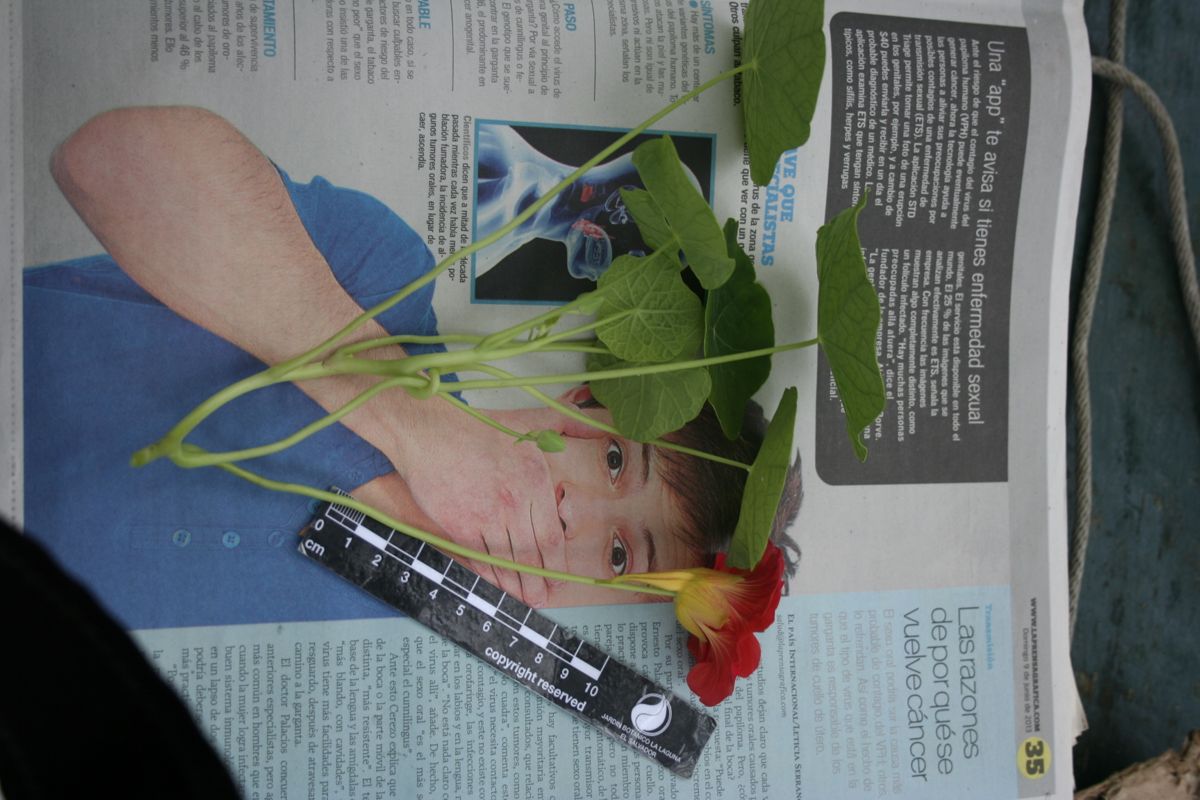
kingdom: Plantae
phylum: Tracheophyta
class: Magnoliopsida
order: Brassicales
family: Tropaeolaceae
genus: Tropaeolum
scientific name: Tropaeolum majus
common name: Nasturtium
